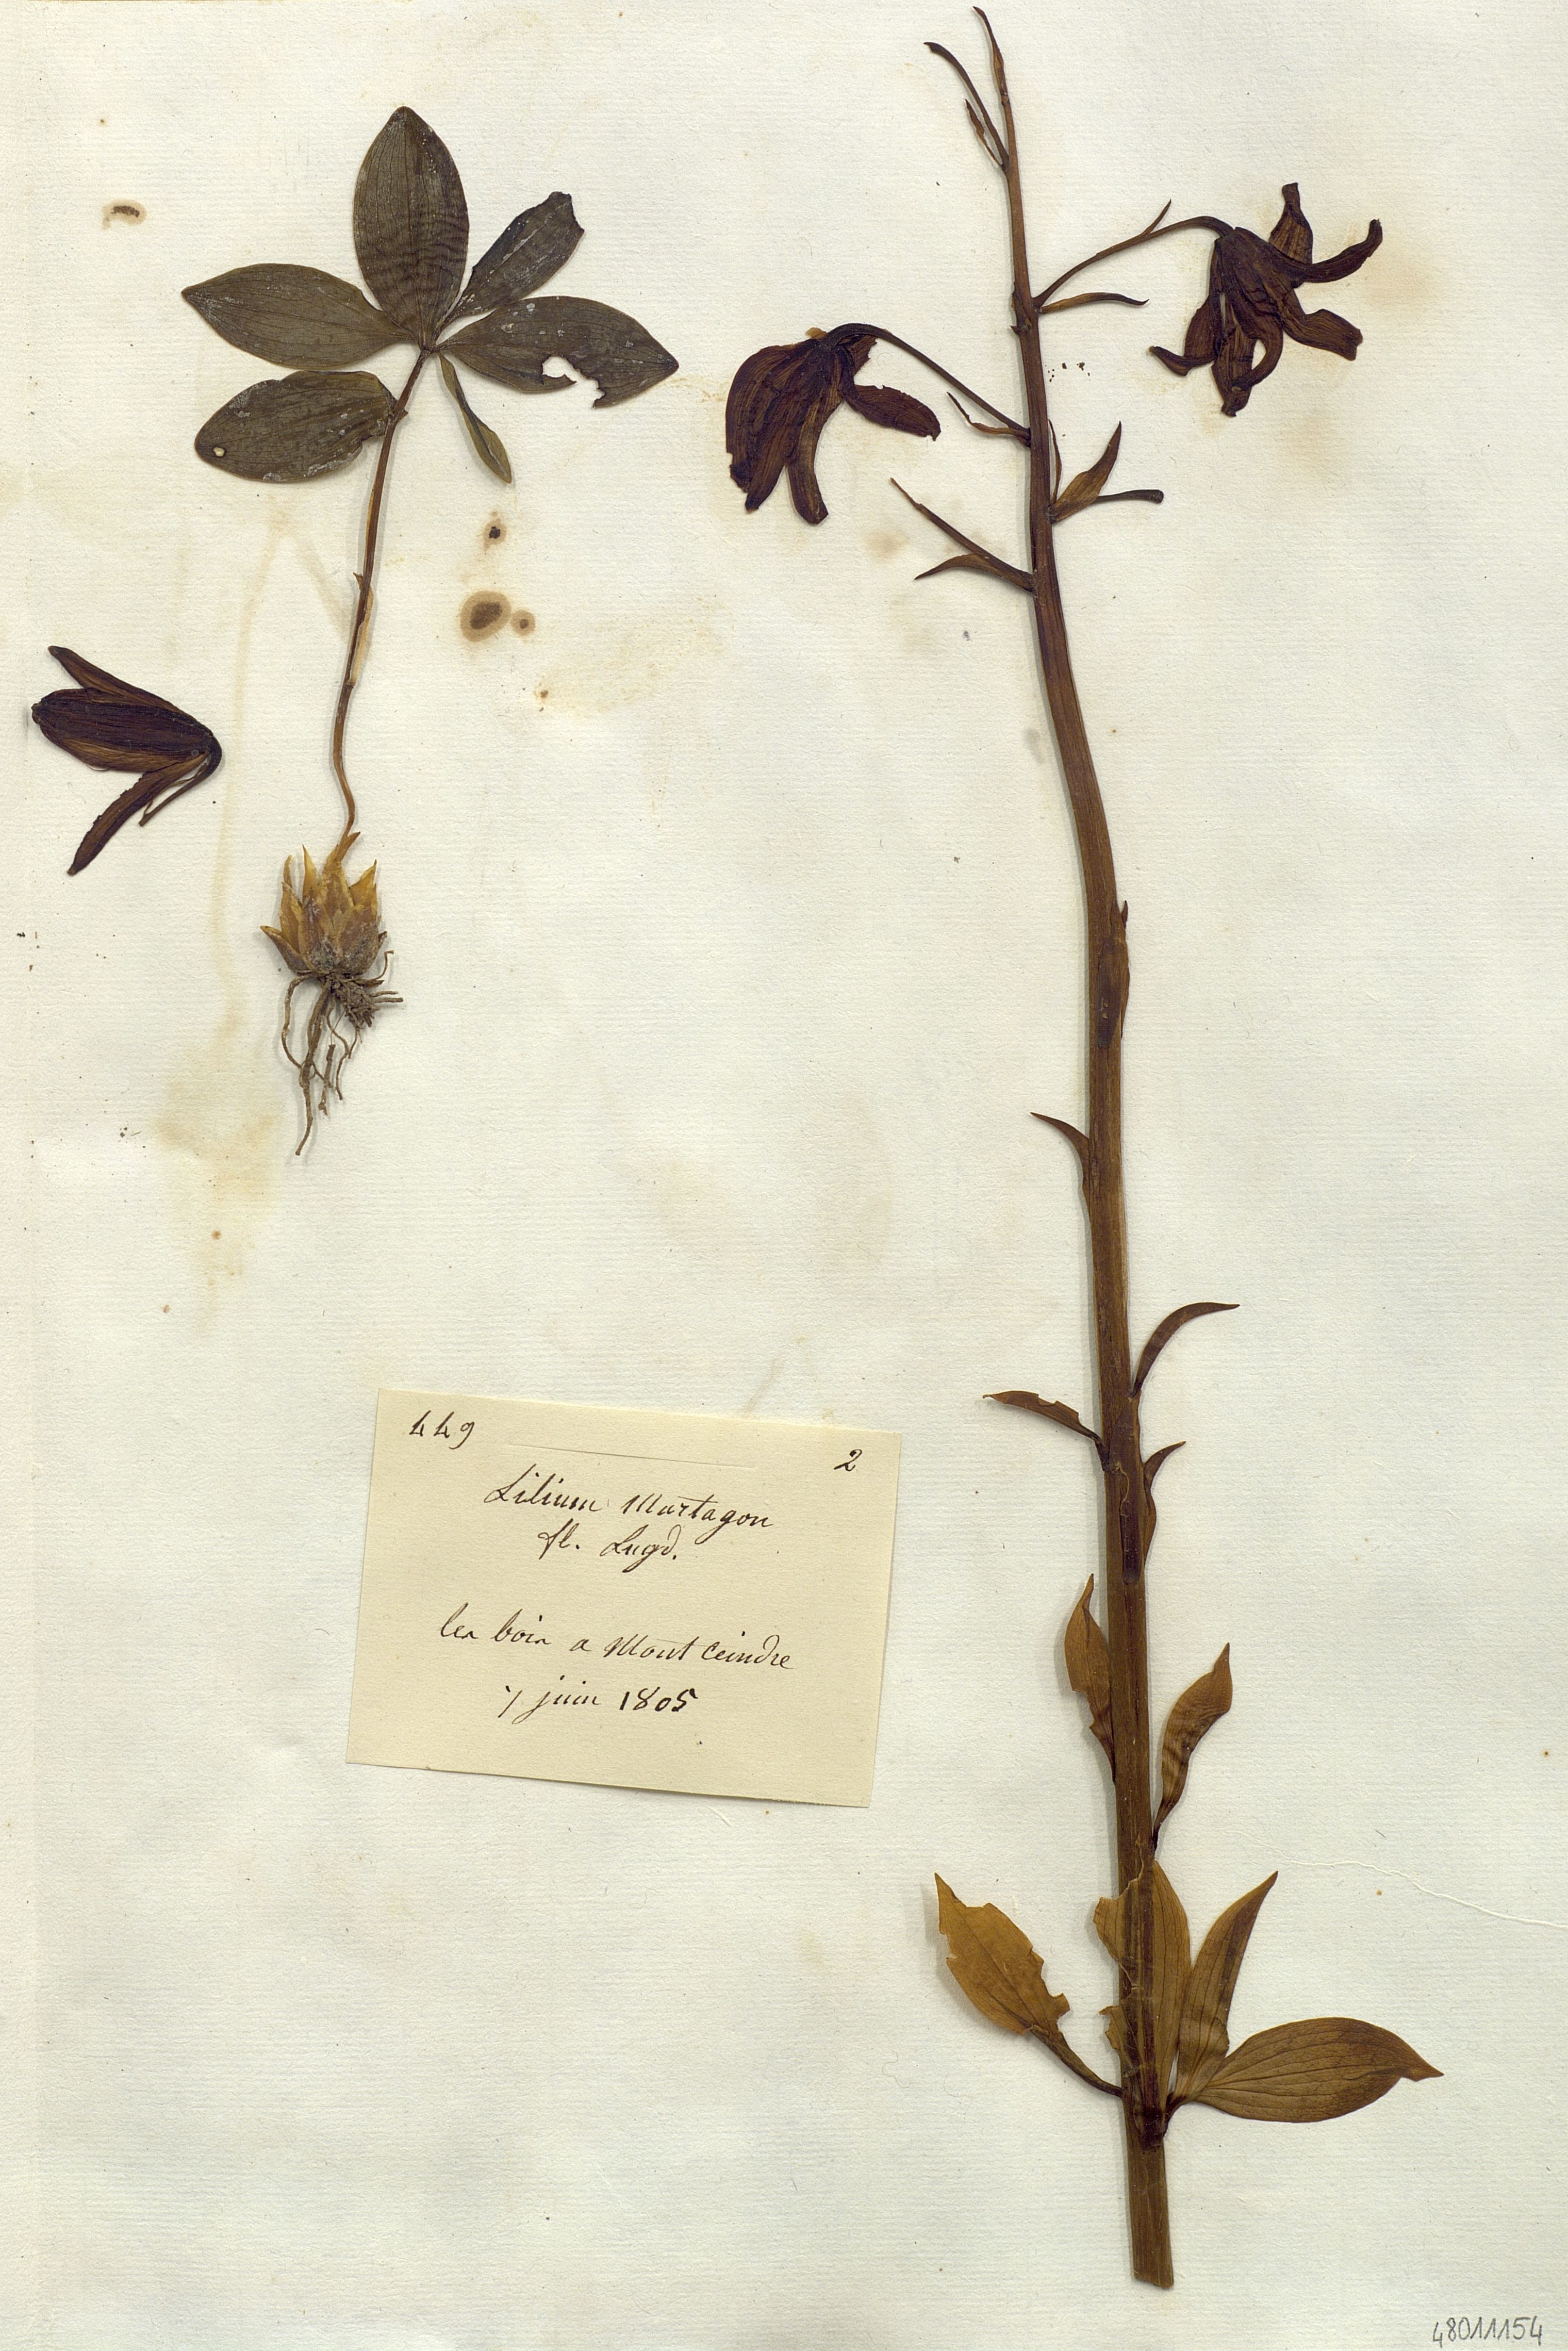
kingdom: Plantae
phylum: Tracheophyta
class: Liliopsida
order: Liliales
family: Liliaceae
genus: Lilium
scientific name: Lilium martagon
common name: Martagon lily
